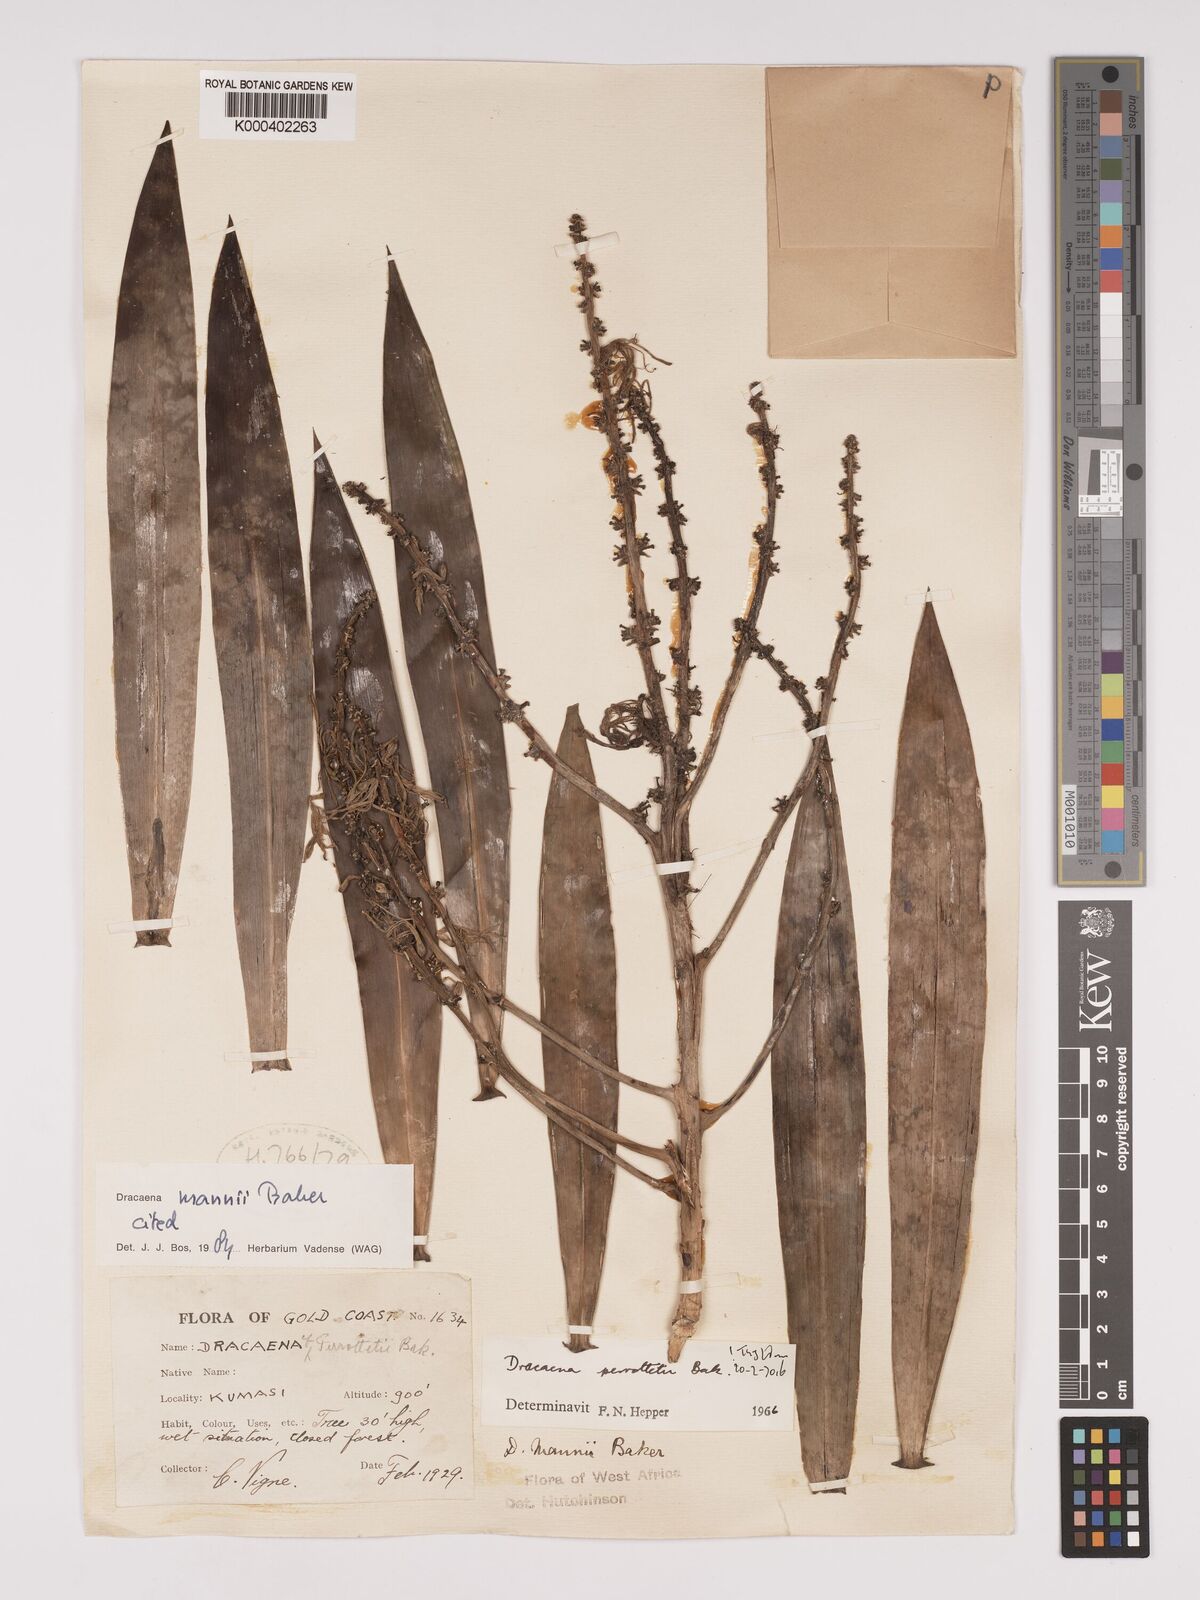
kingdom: Plantae
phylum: Tracheophyta
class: Liliopsida
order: Asparagales
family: Asparagaceae
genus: Dracaena
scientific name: Dracaena mannii
